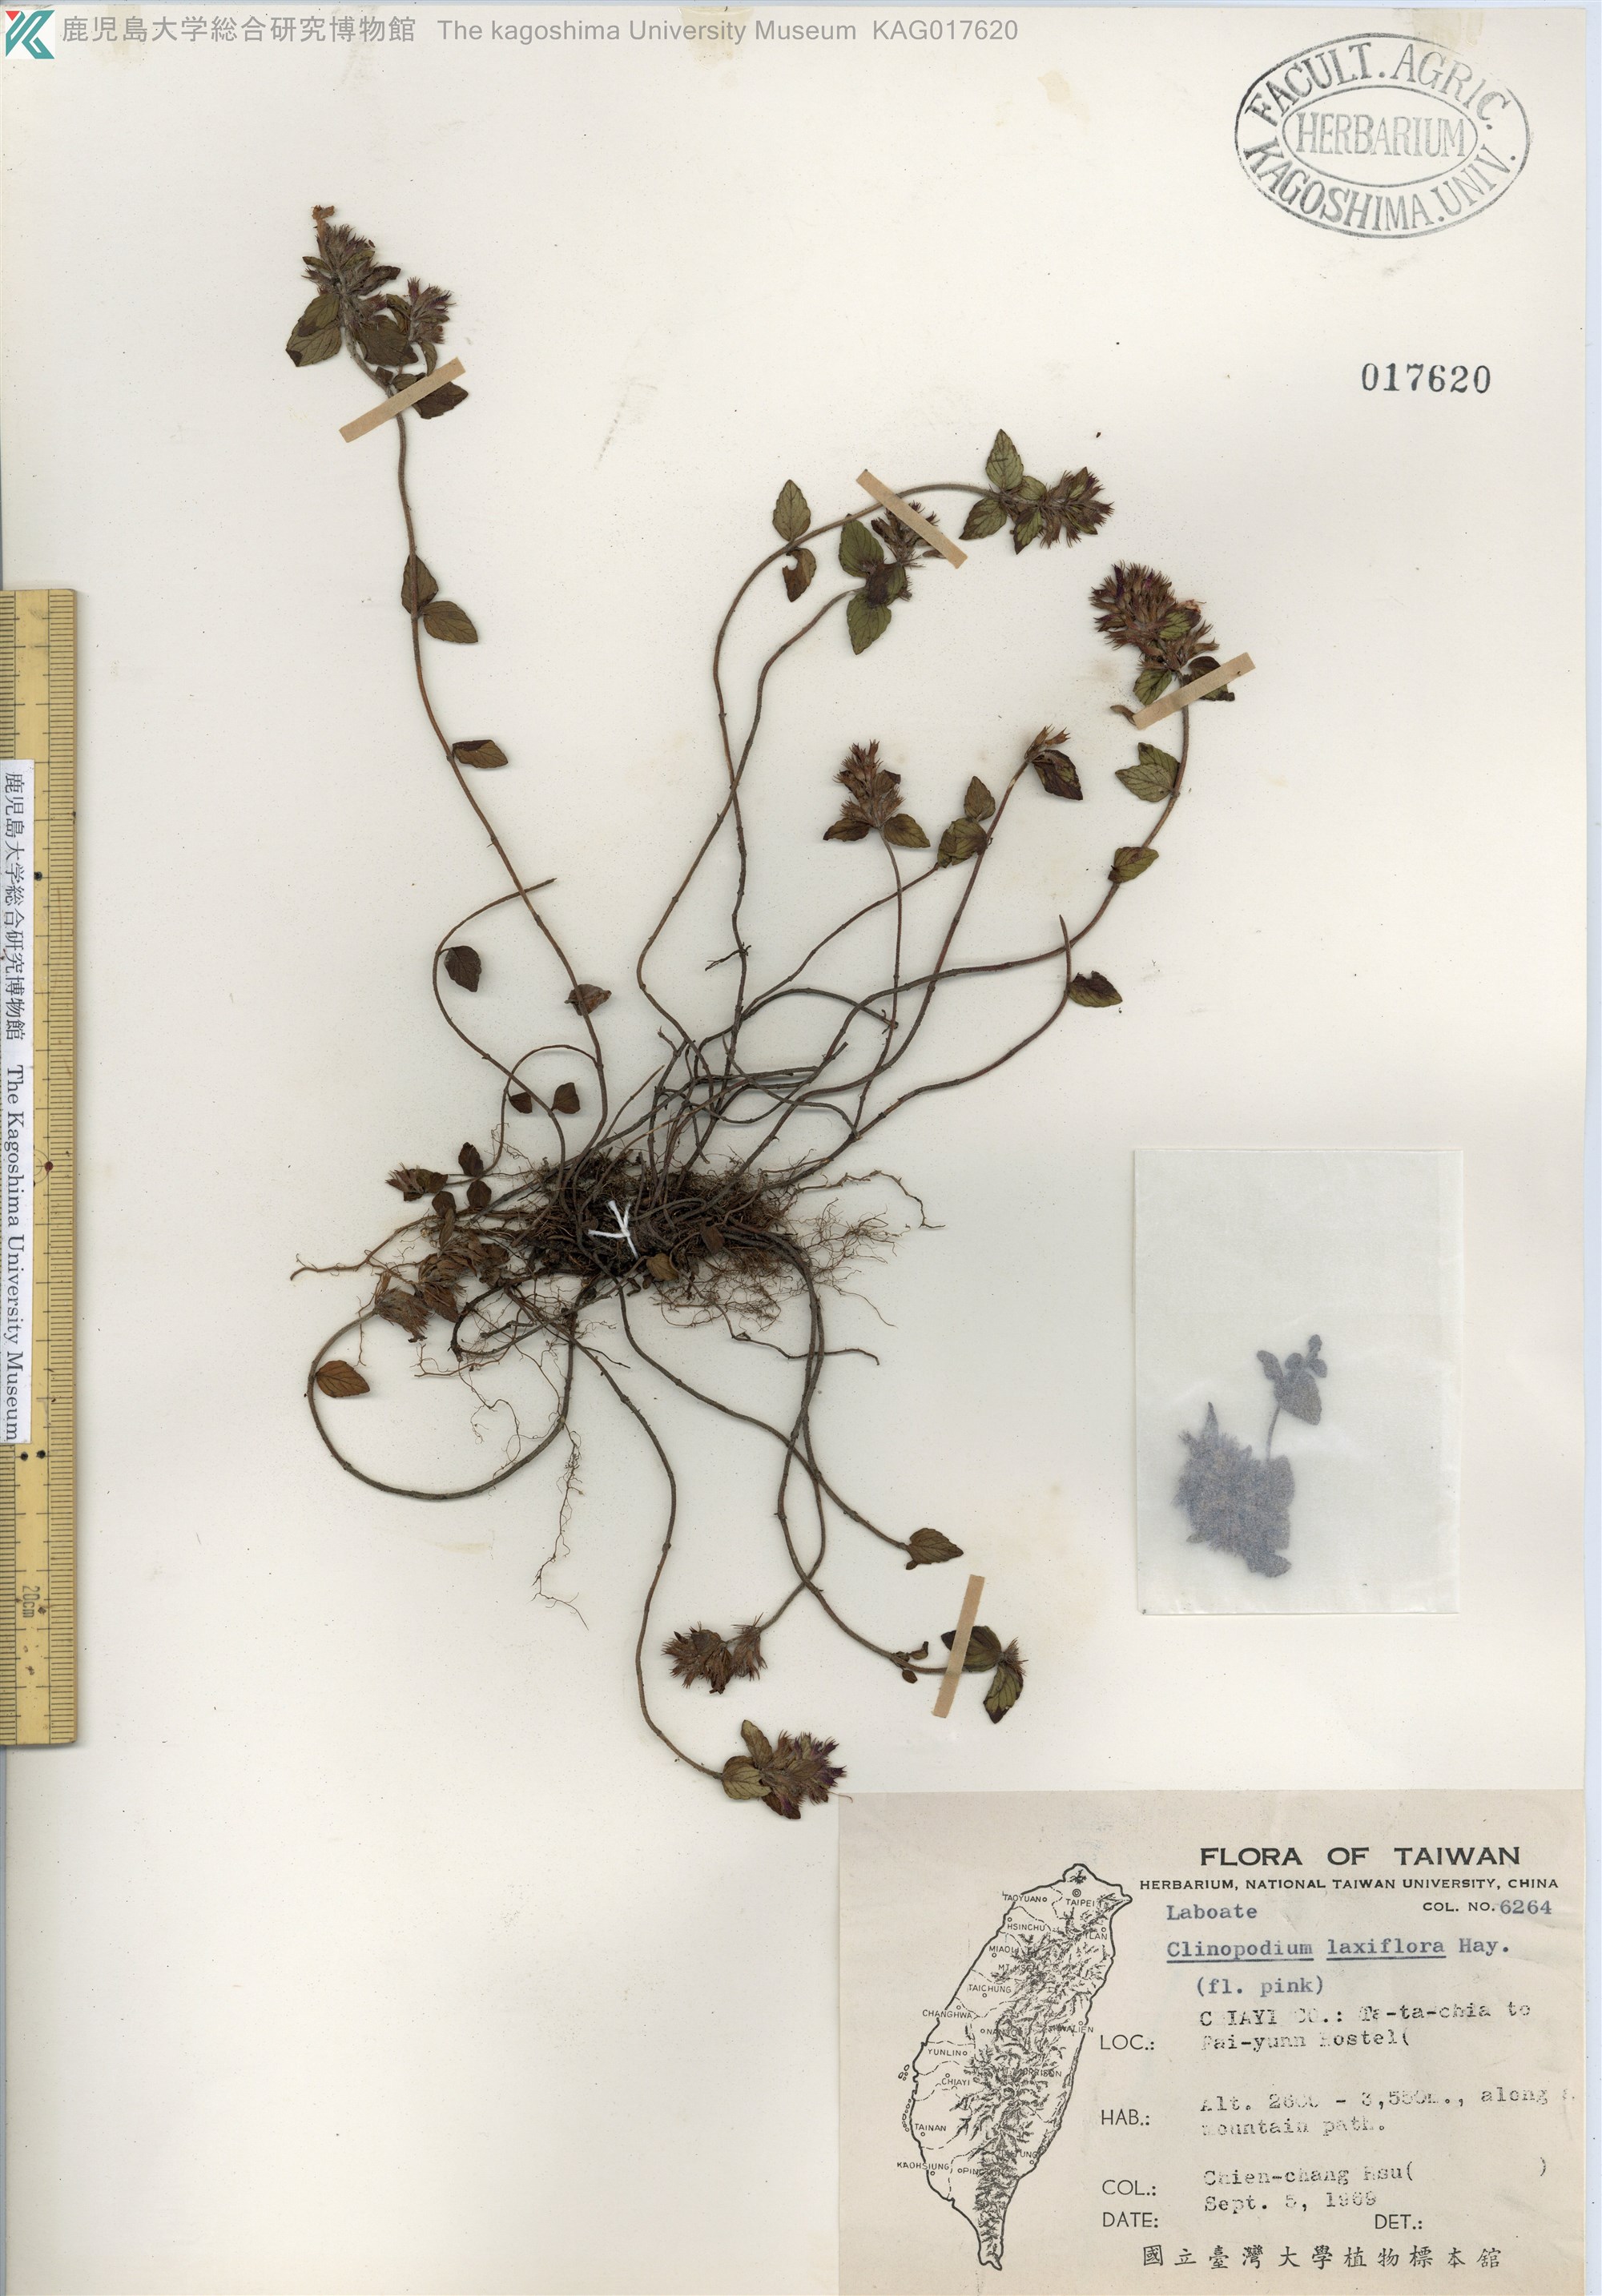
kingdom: Plantae
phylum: Tracheophyta
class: Magnoliopsida
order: Lamiales
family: Lamiaceae
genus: Clinopodium
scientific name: Clinopodium laxiflorum
